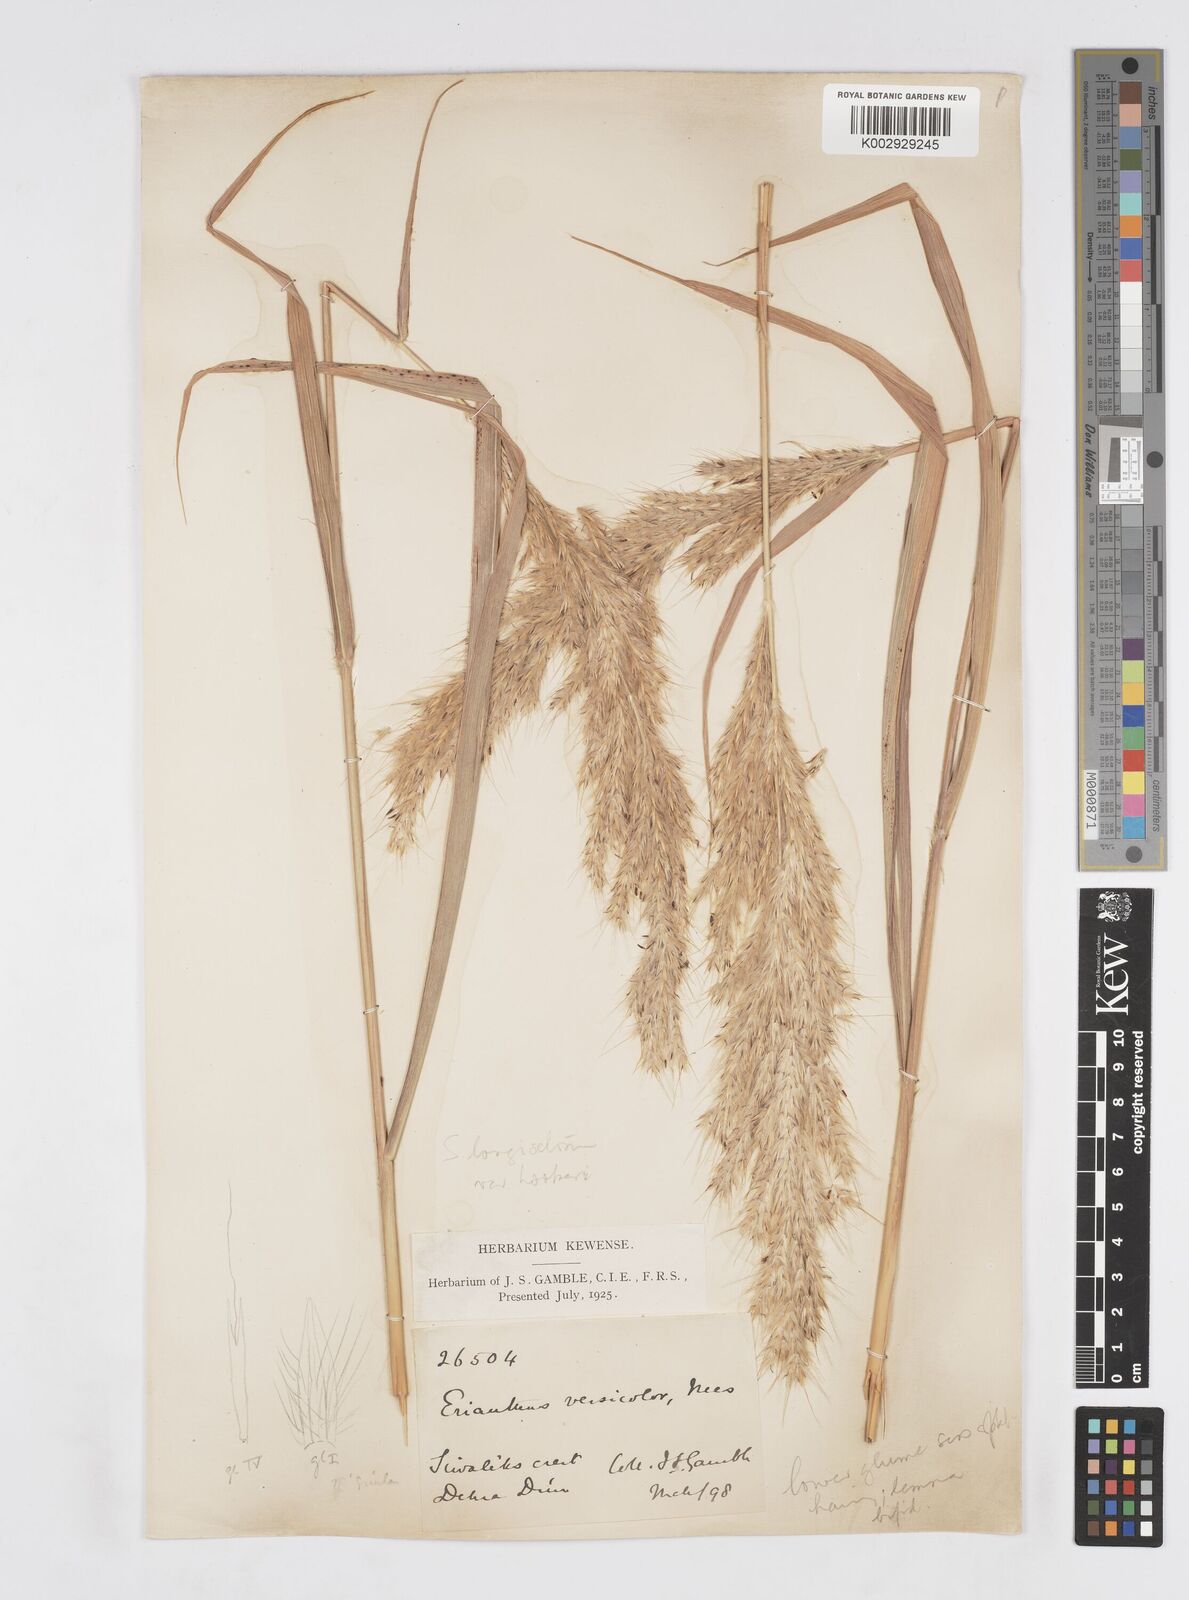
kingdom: Plantae
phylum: Tracheophyta
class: Liliopsida
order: Poales
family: Poaceae
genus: Saccharum
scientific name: Saccharum longesetosum
